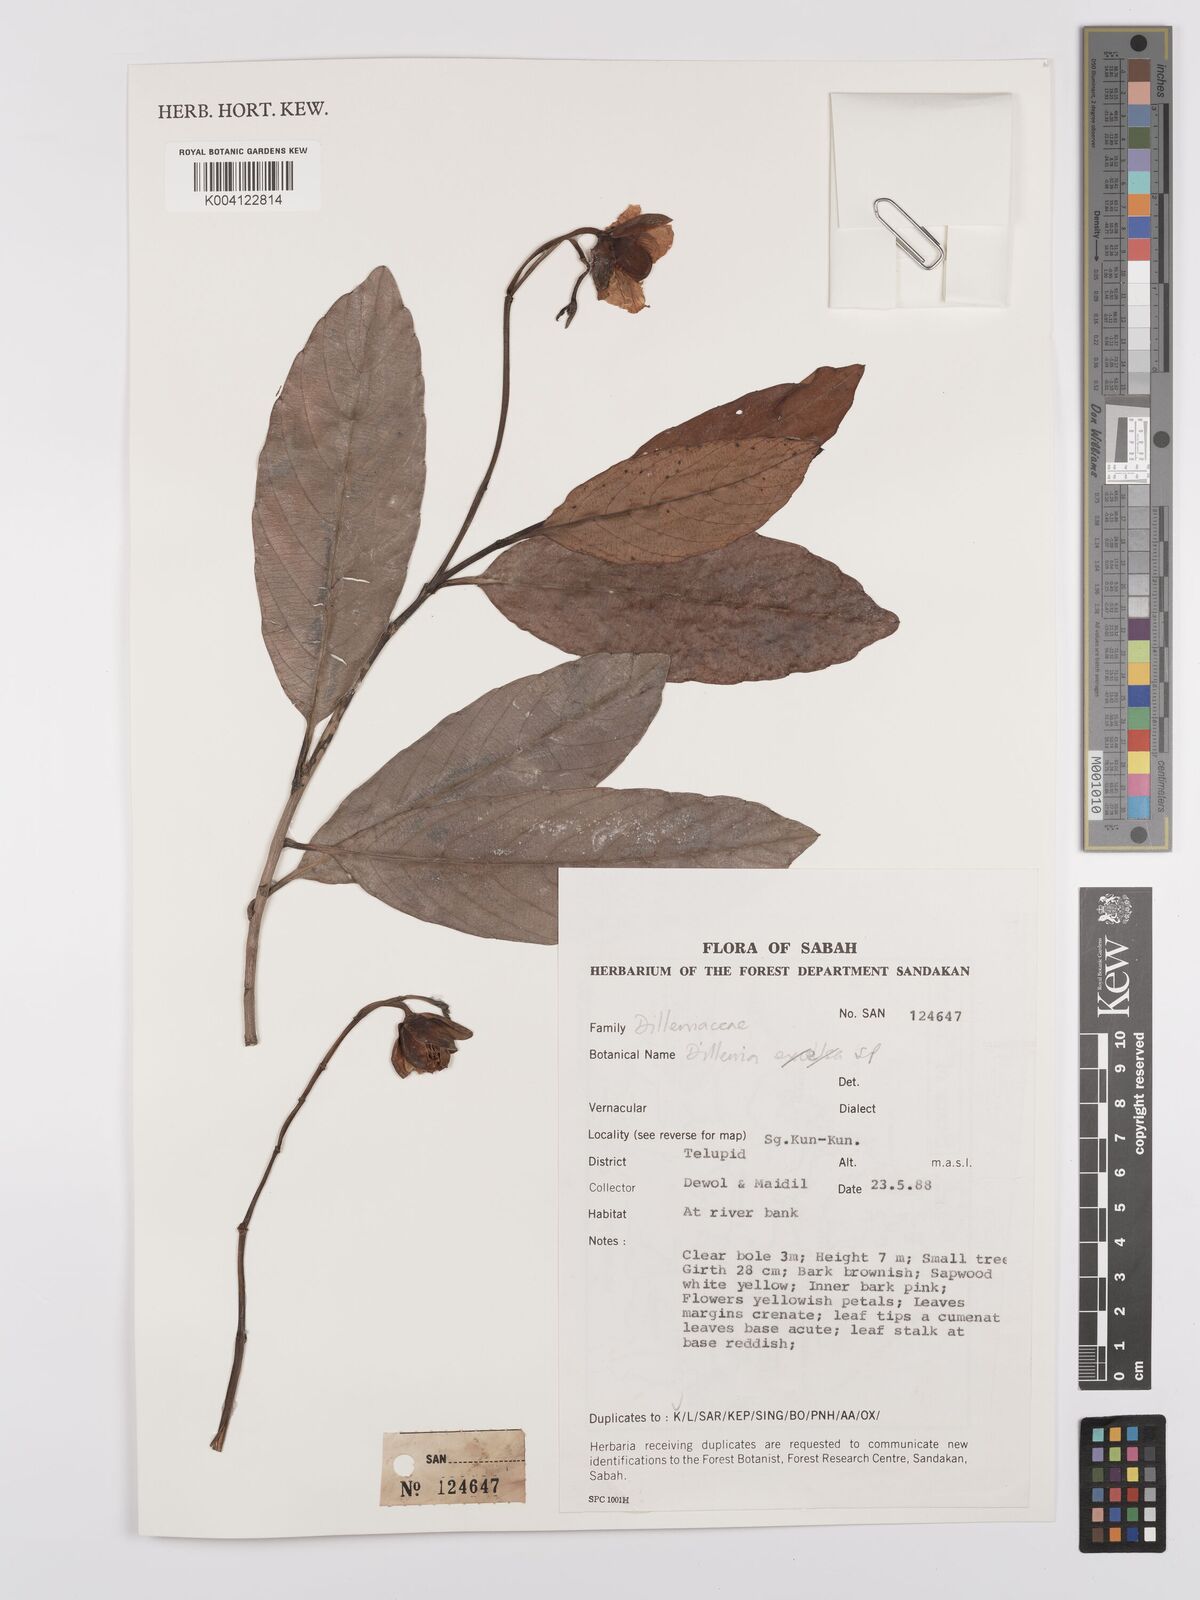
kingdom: Plantae
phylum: Tracheophyta
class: Magnoliopsida
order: Dilleniales
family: Dilleniaceae
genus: Dillenia
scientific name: Dillenia
